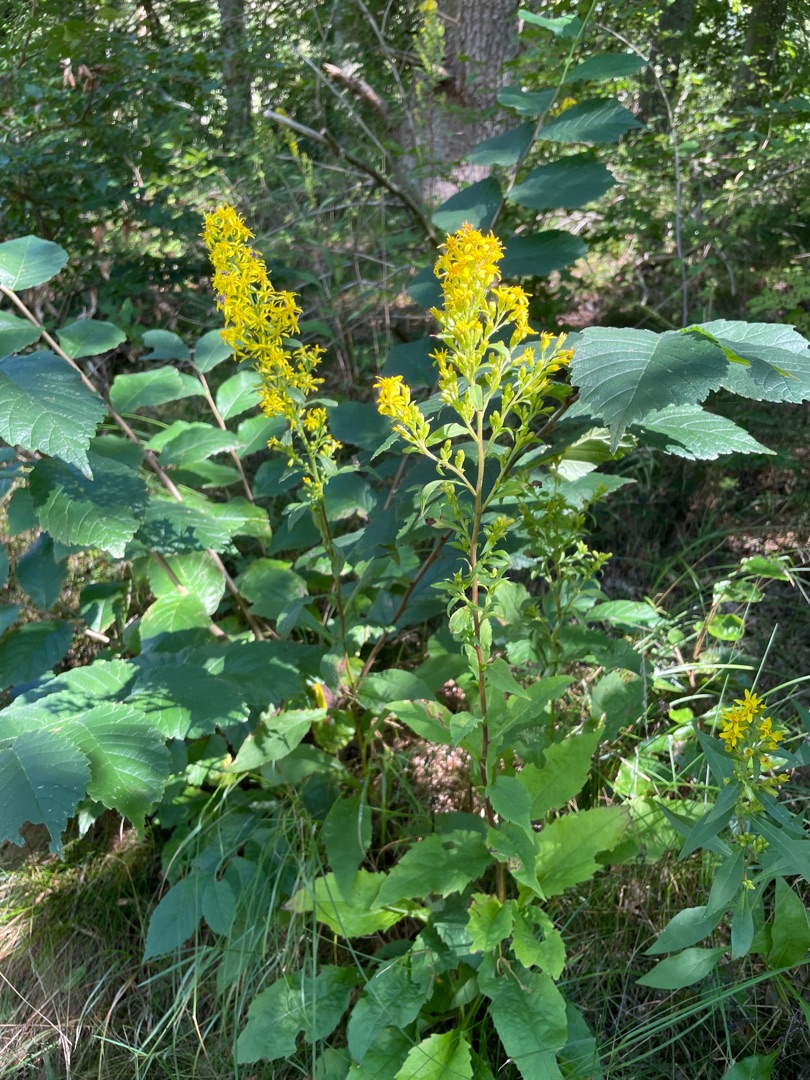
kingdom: Plantae
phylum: Tracheophyta
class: Magnoliopsida
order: Asterales
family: Asteraceae
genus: Solidago
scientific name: Solidago virgaurea
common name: Almindelig gyldenris
